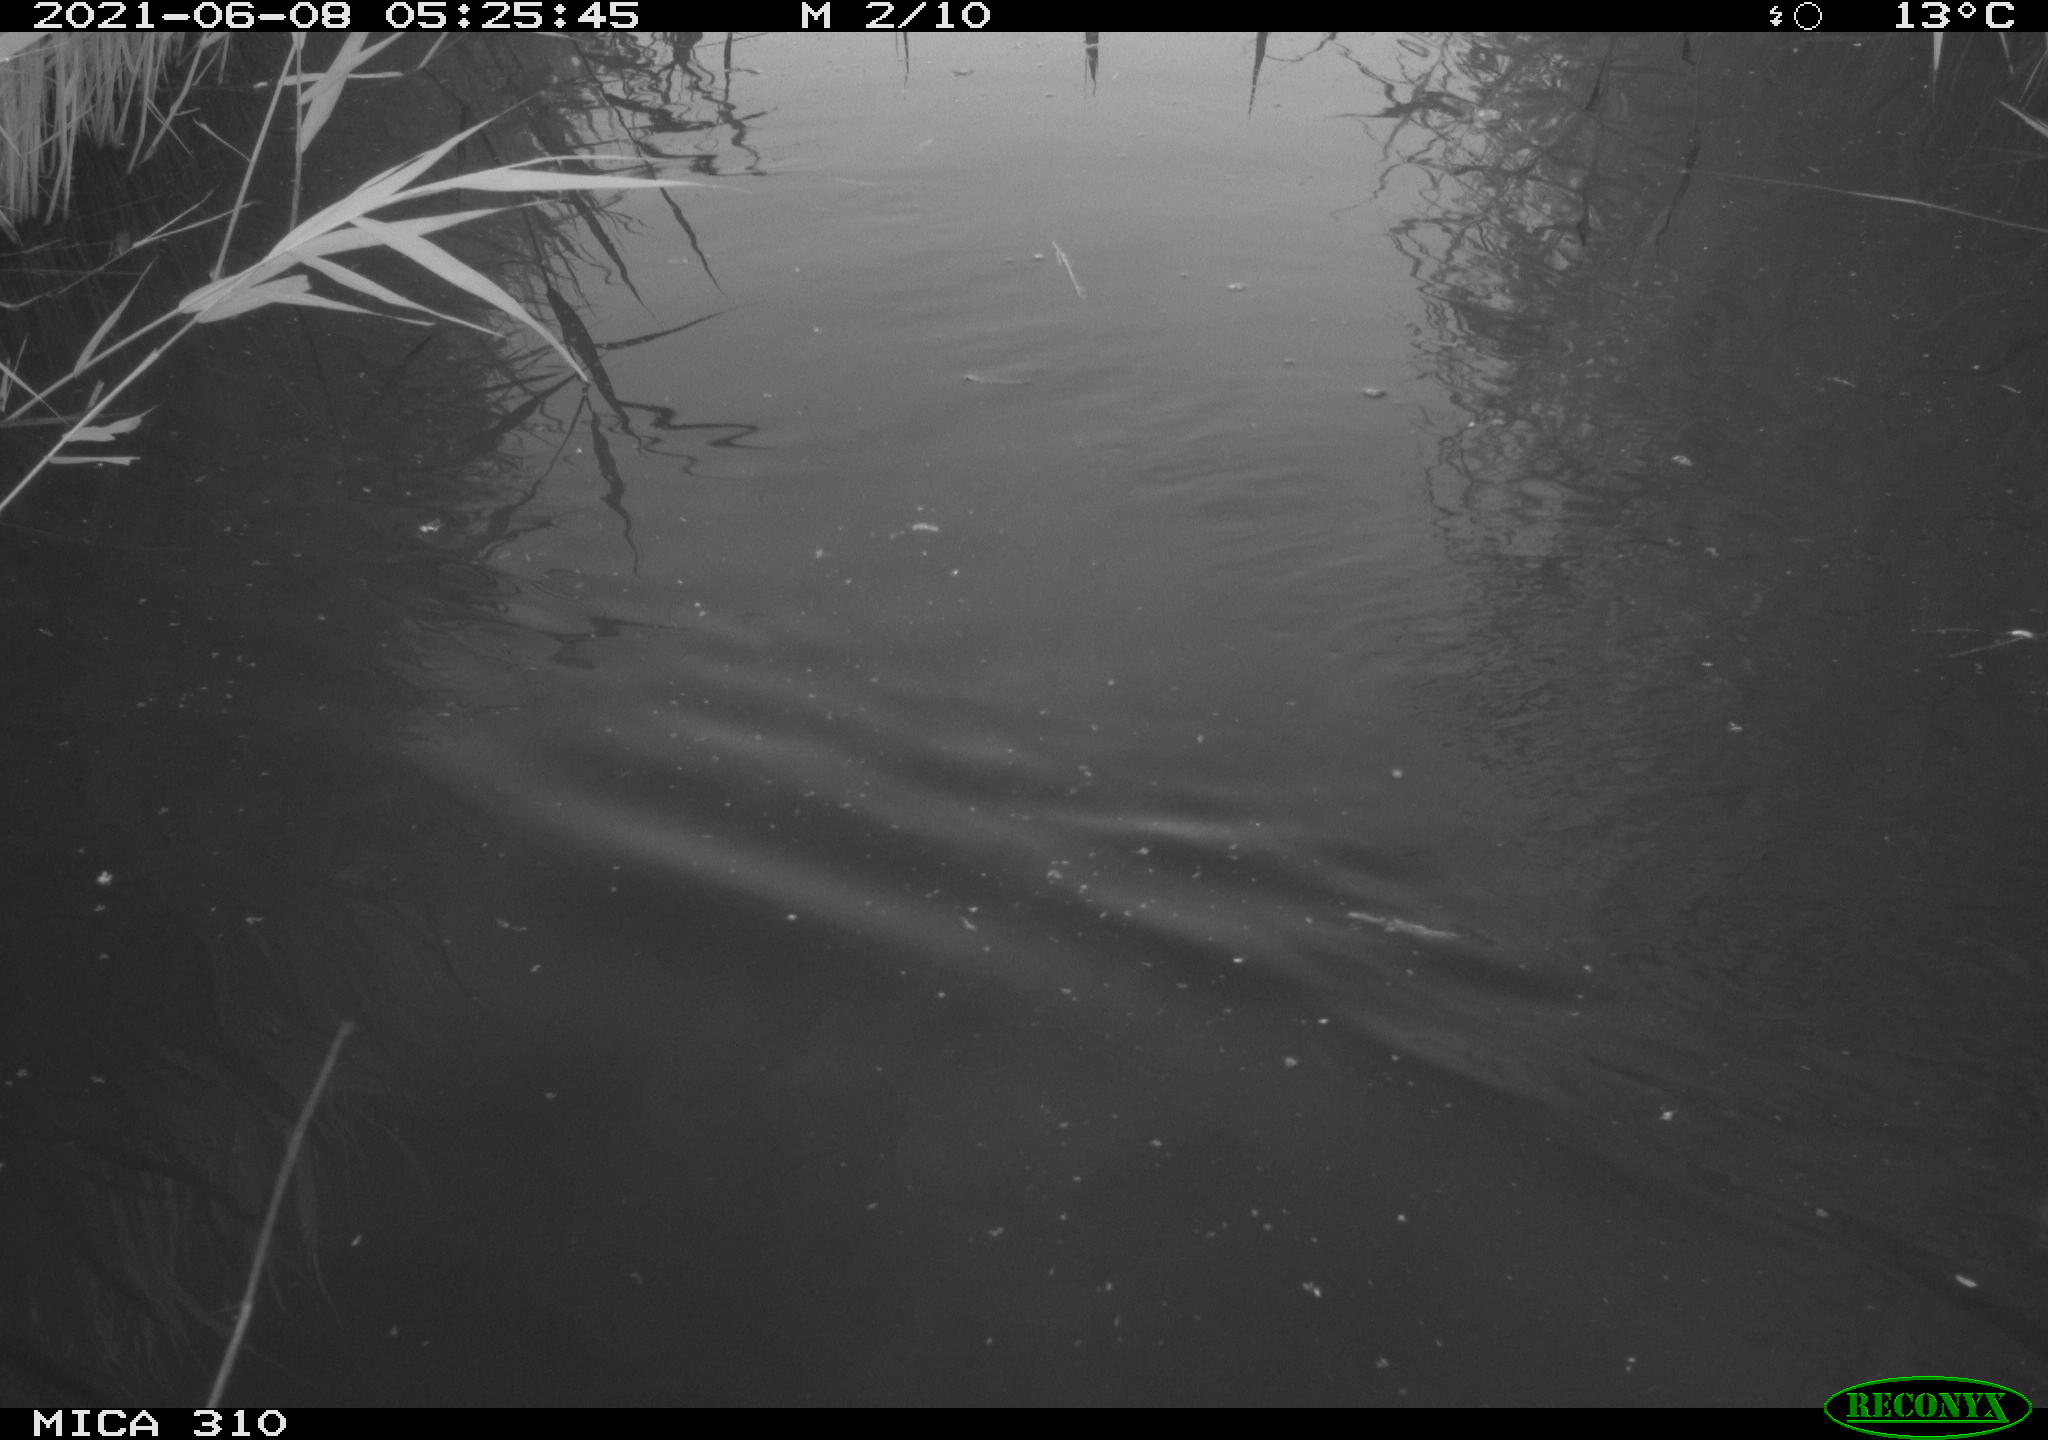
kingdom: Animalia
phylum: Chordata
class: Aves
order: Gruiformes
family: Rallidae
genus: Fulica
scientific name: Fulica atra
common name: Eurasian coot
